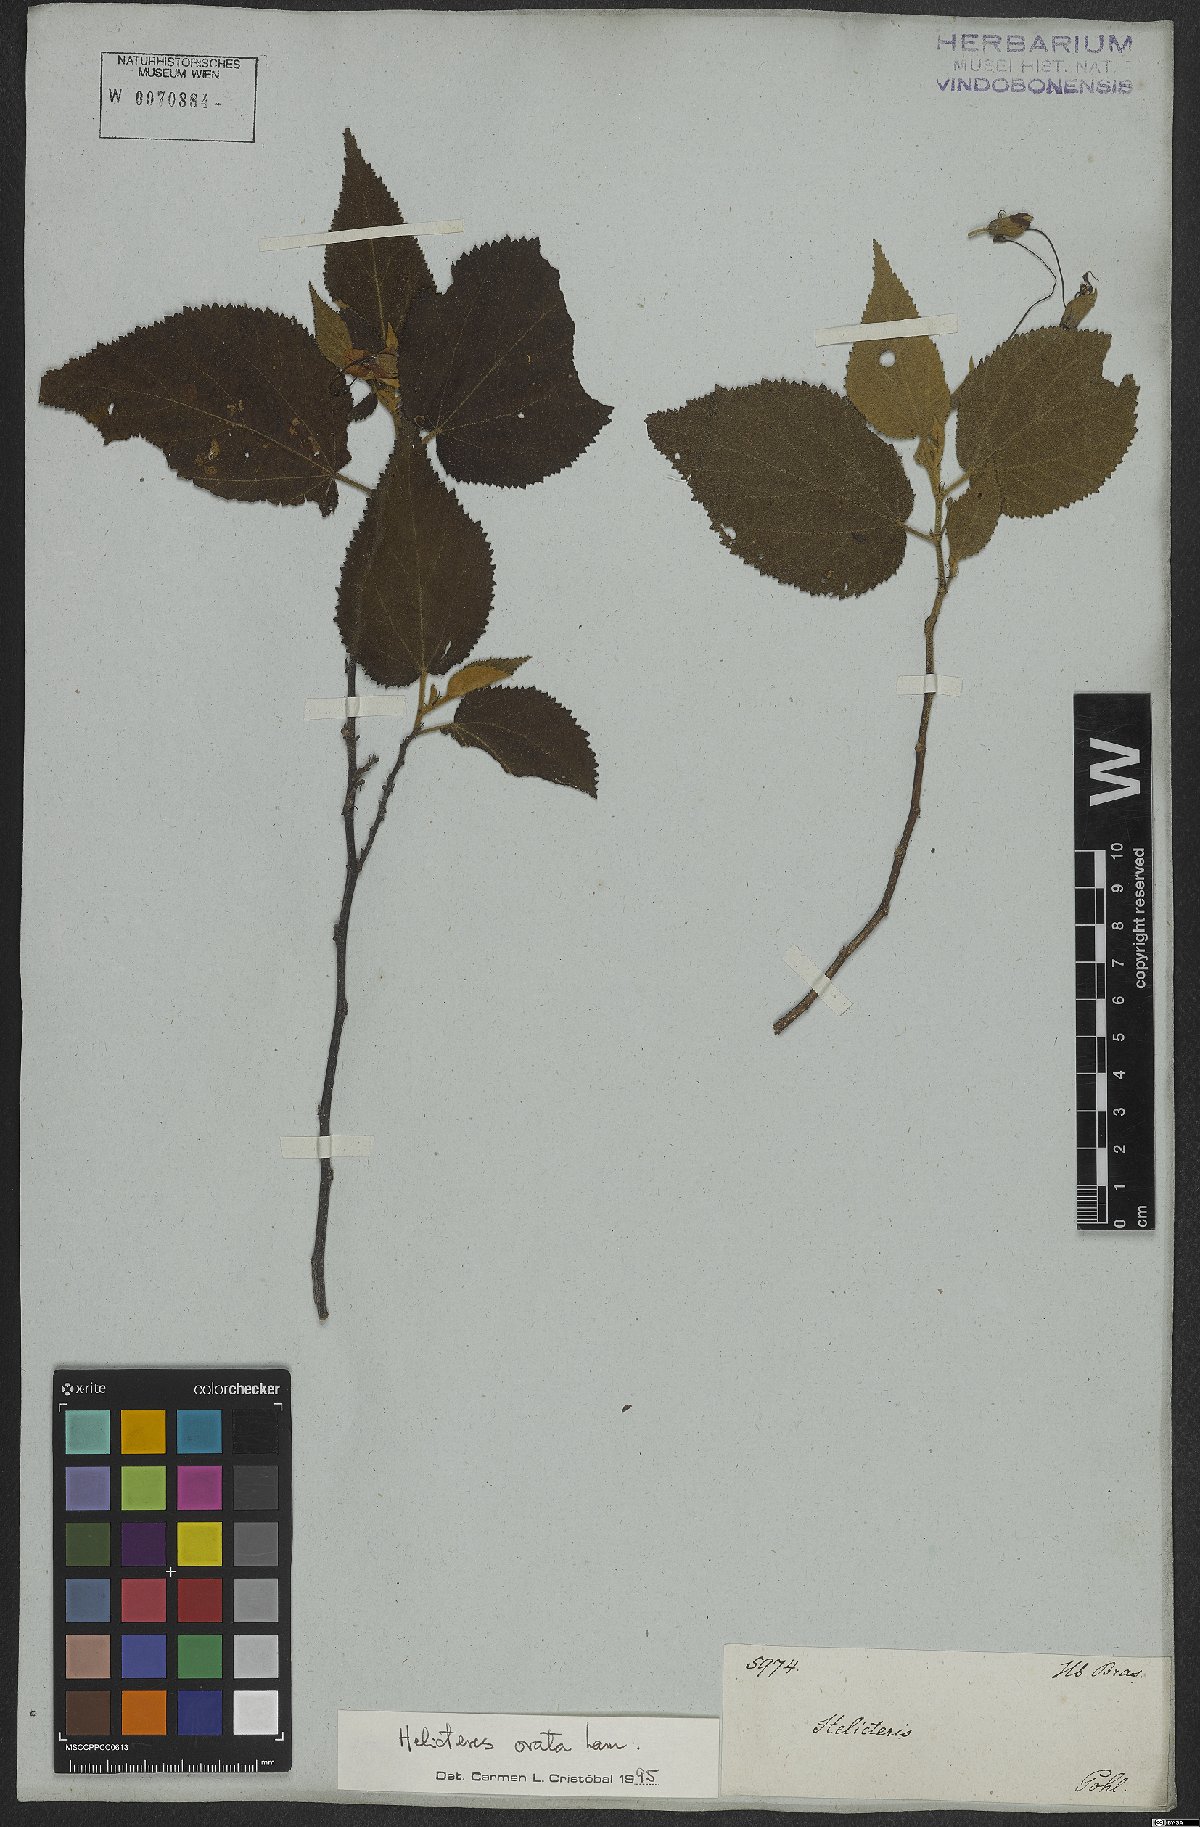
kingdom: Plantae
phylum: Tracheophyta
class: Magnoliopsida
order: Malvales
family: Malvaceae
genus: Helicteres
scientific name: Helicteres ovata
